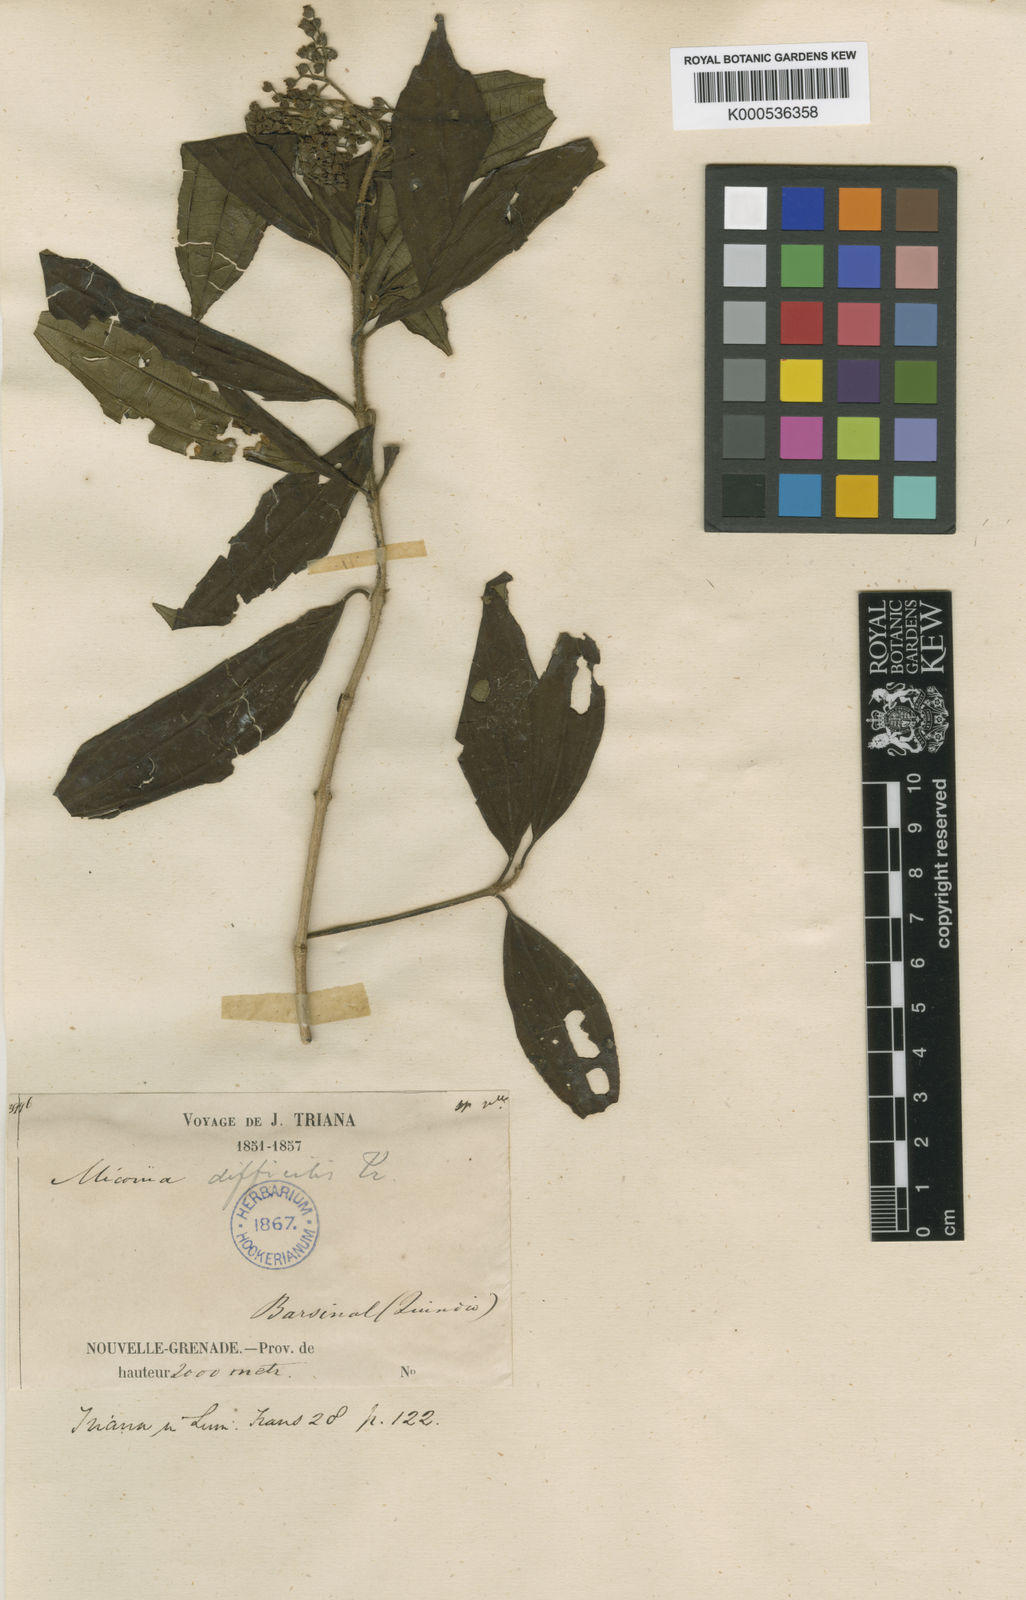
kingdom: Plantae
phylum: Tracheophyta
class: Magnoliopsida
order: Myrtales
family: Melastomataceae
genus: Miconia
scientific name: Miconia difficilis
